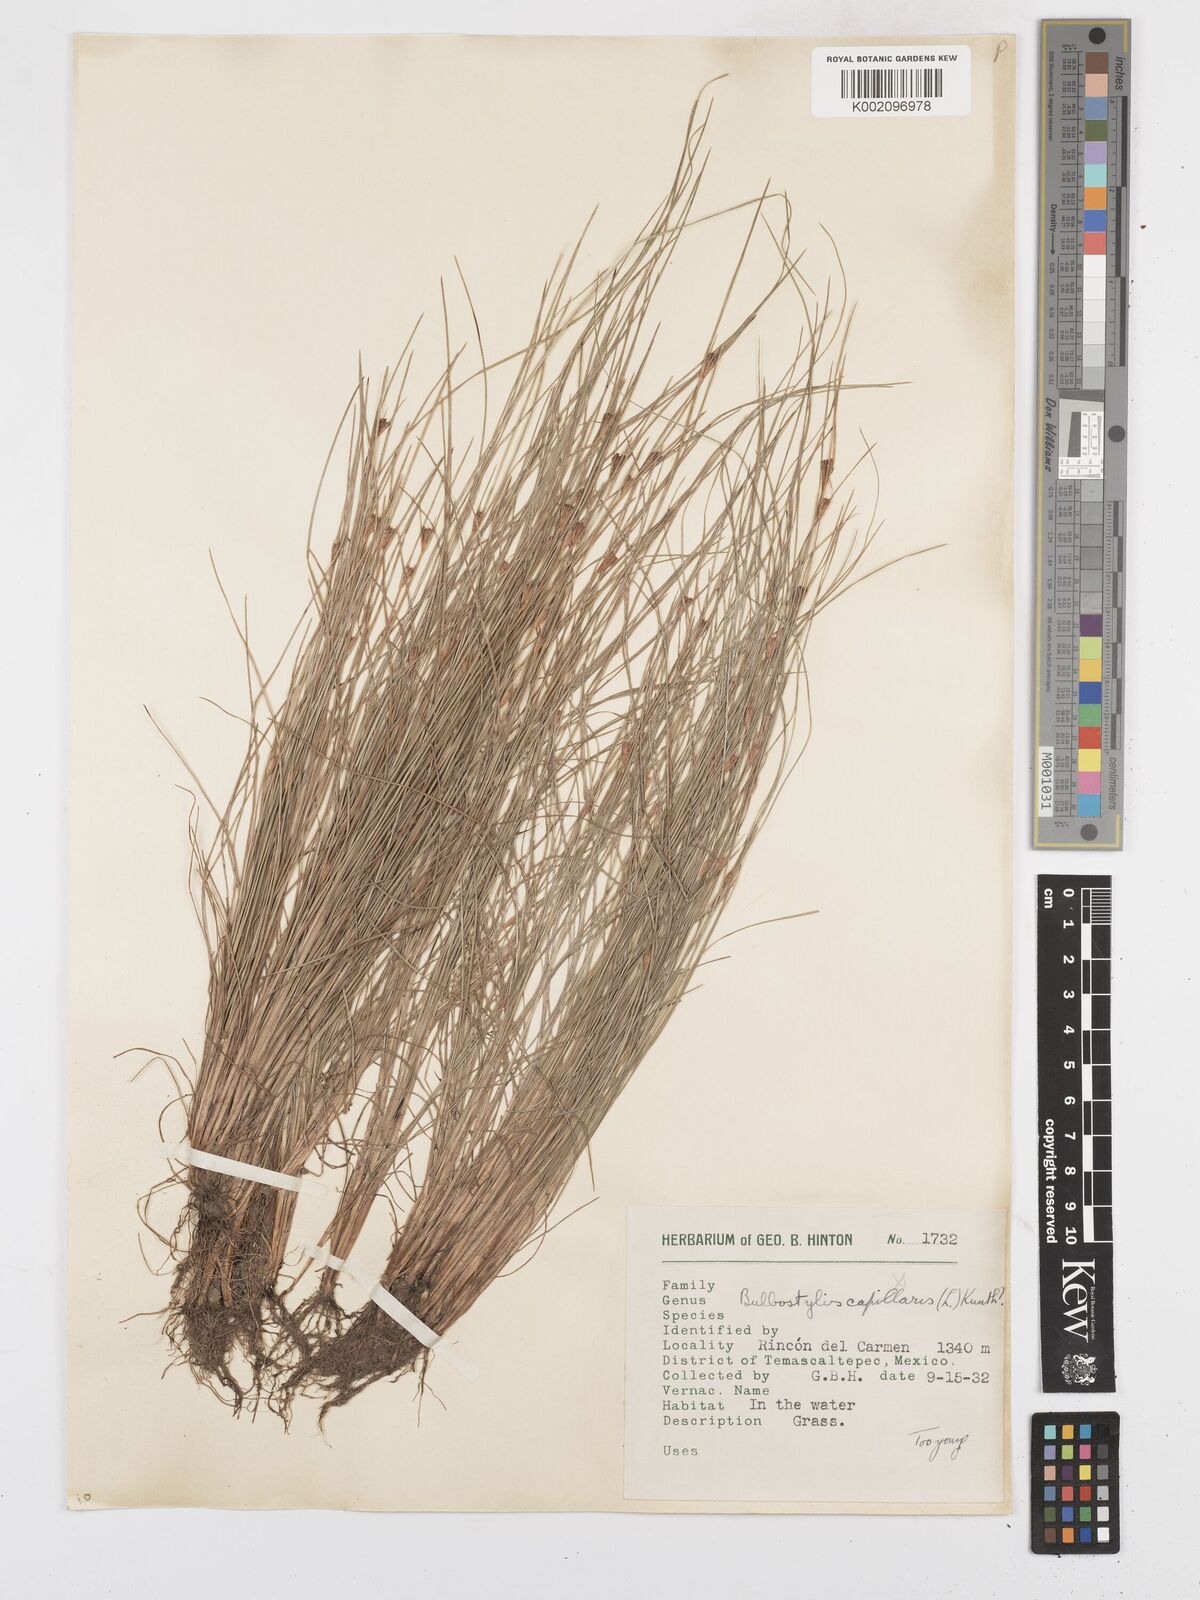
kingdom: Plantae
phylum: Tracheophyta
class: Liliopsida
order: Poales
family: Cyperaceae
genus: Bulbostylis
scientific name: Bulbostylis
